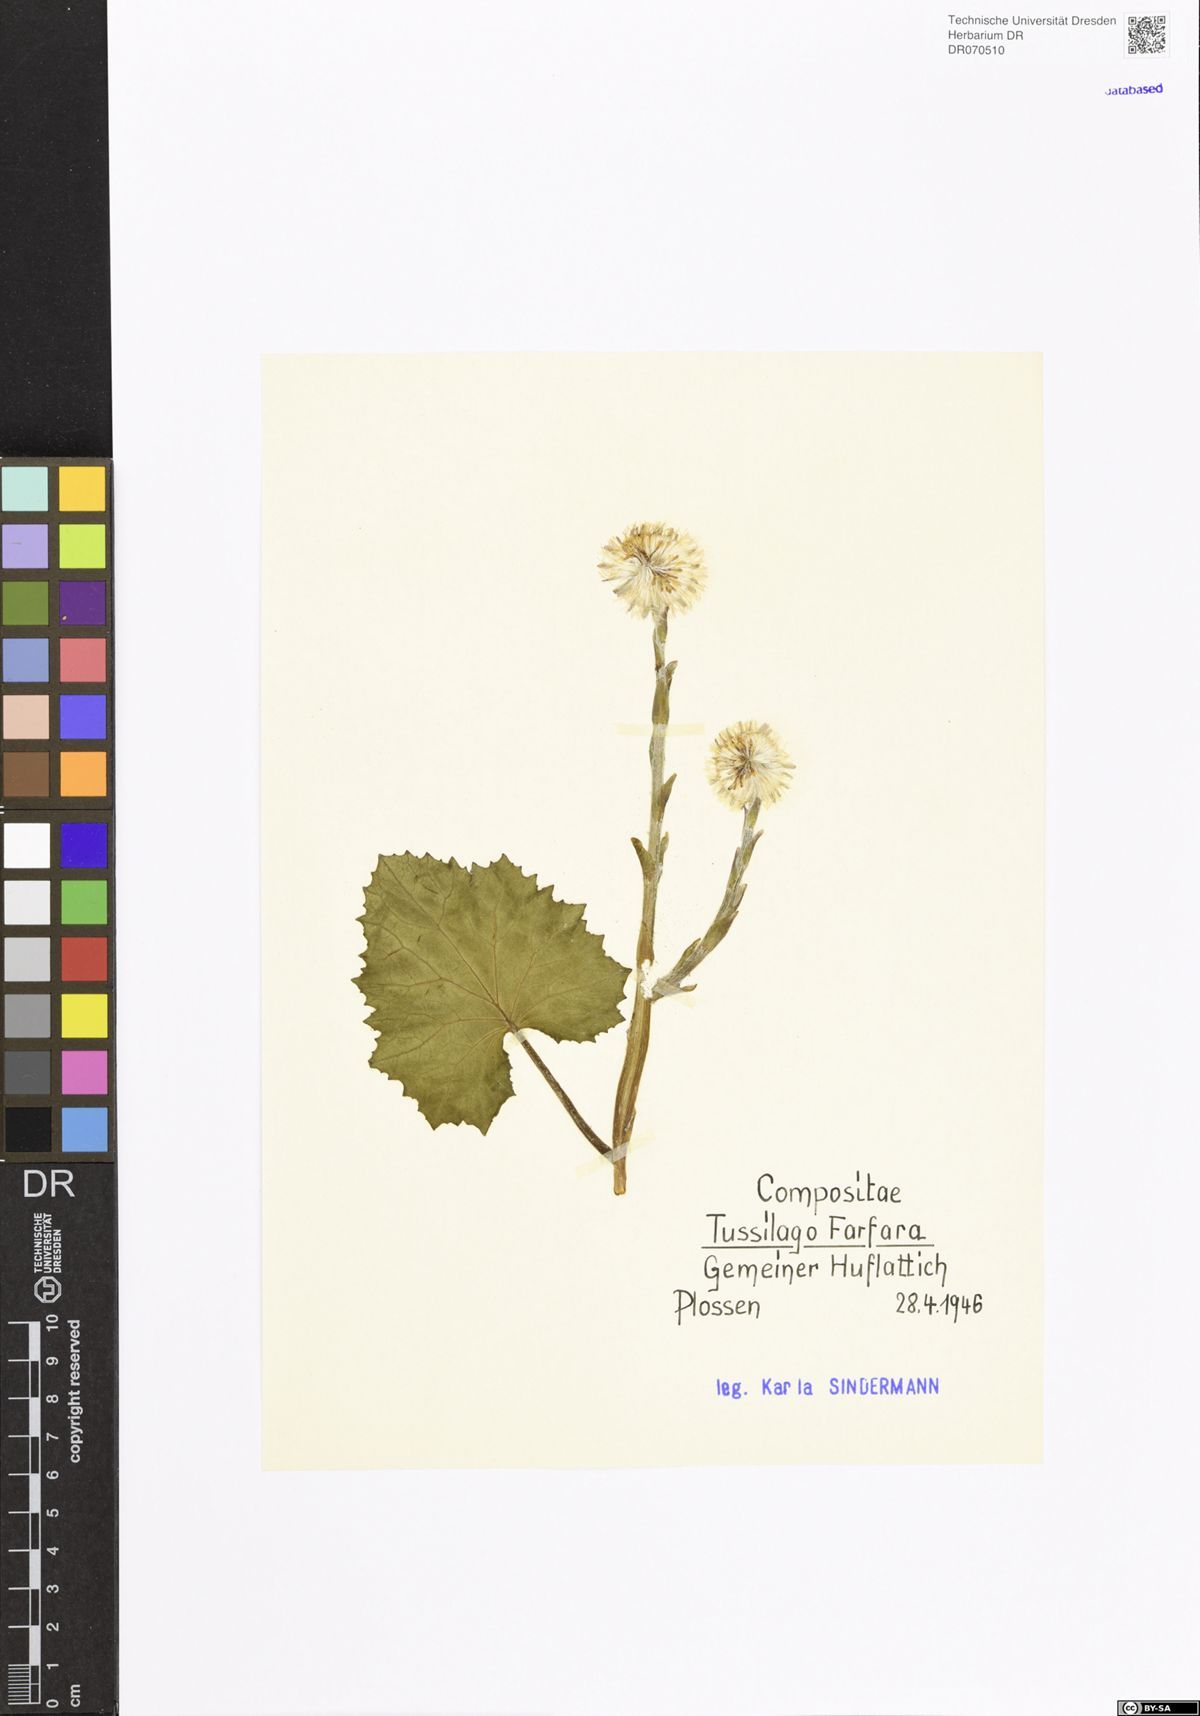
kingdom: Plantae
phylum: Tracheophyta
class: Magnoliopsida
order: Asterales
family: Asteraceae
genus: Tussilago
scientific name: Tussilago farfara
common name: Coltsfoot
